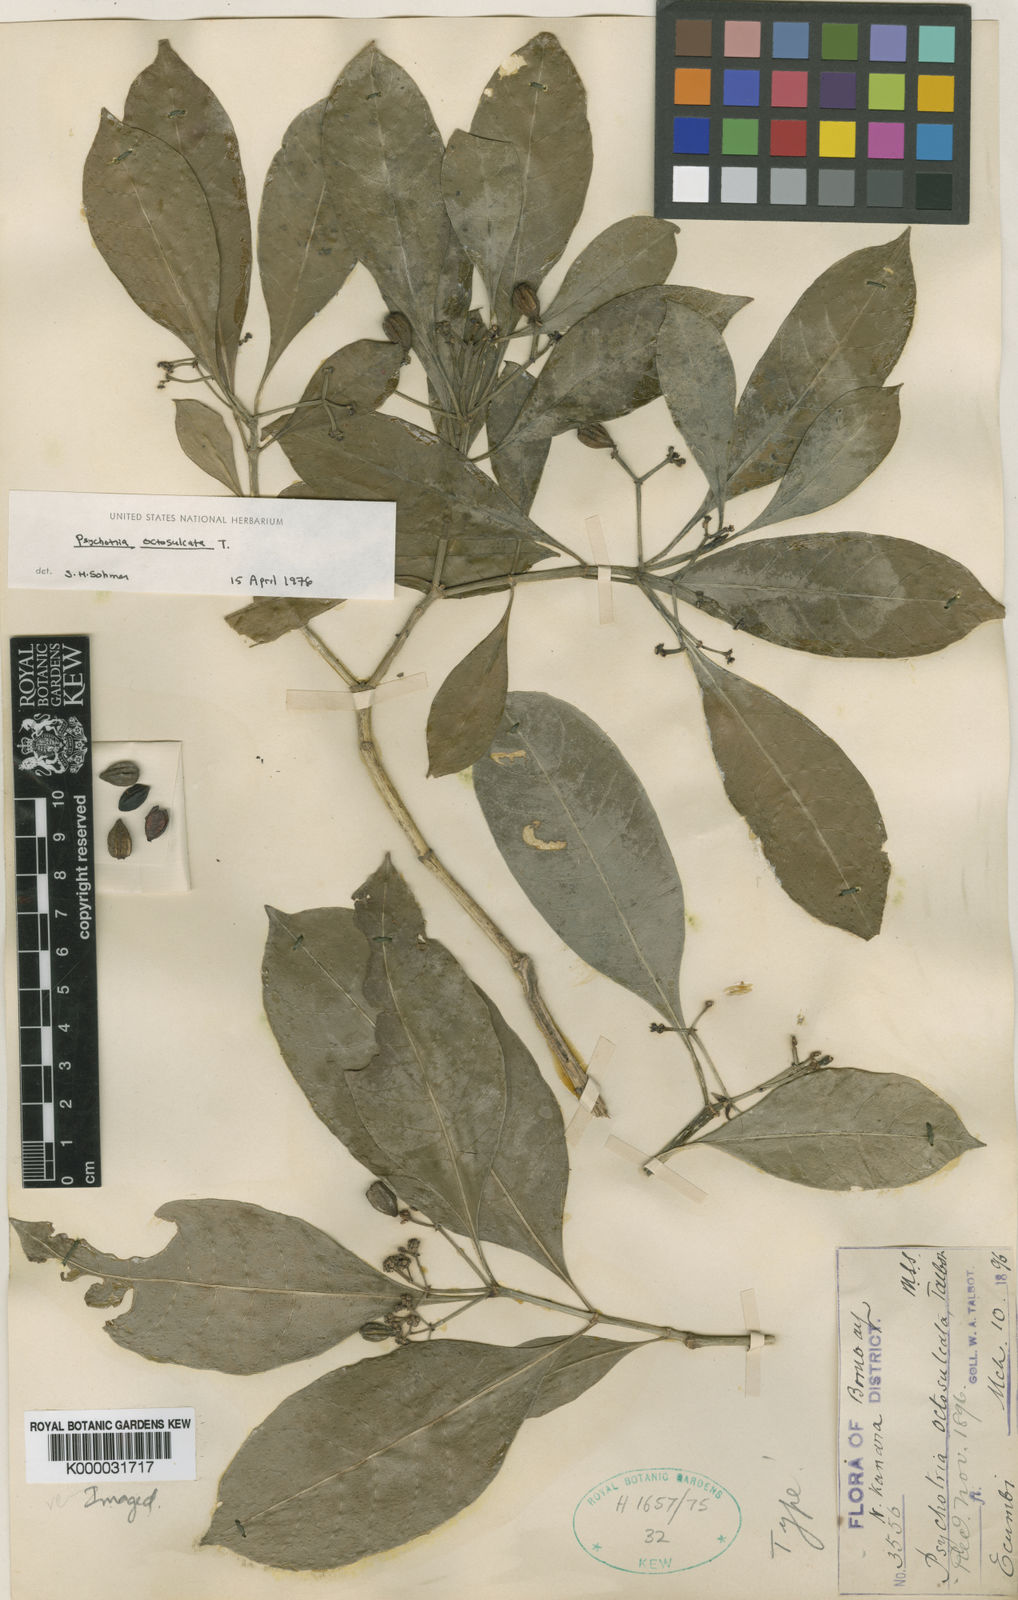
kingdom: Plantae
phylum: Tracheophyta
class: Magnoliopsida
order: Gentianales
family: Rubiaceae
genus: Psychotria
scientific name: Psychotria octosulcata
